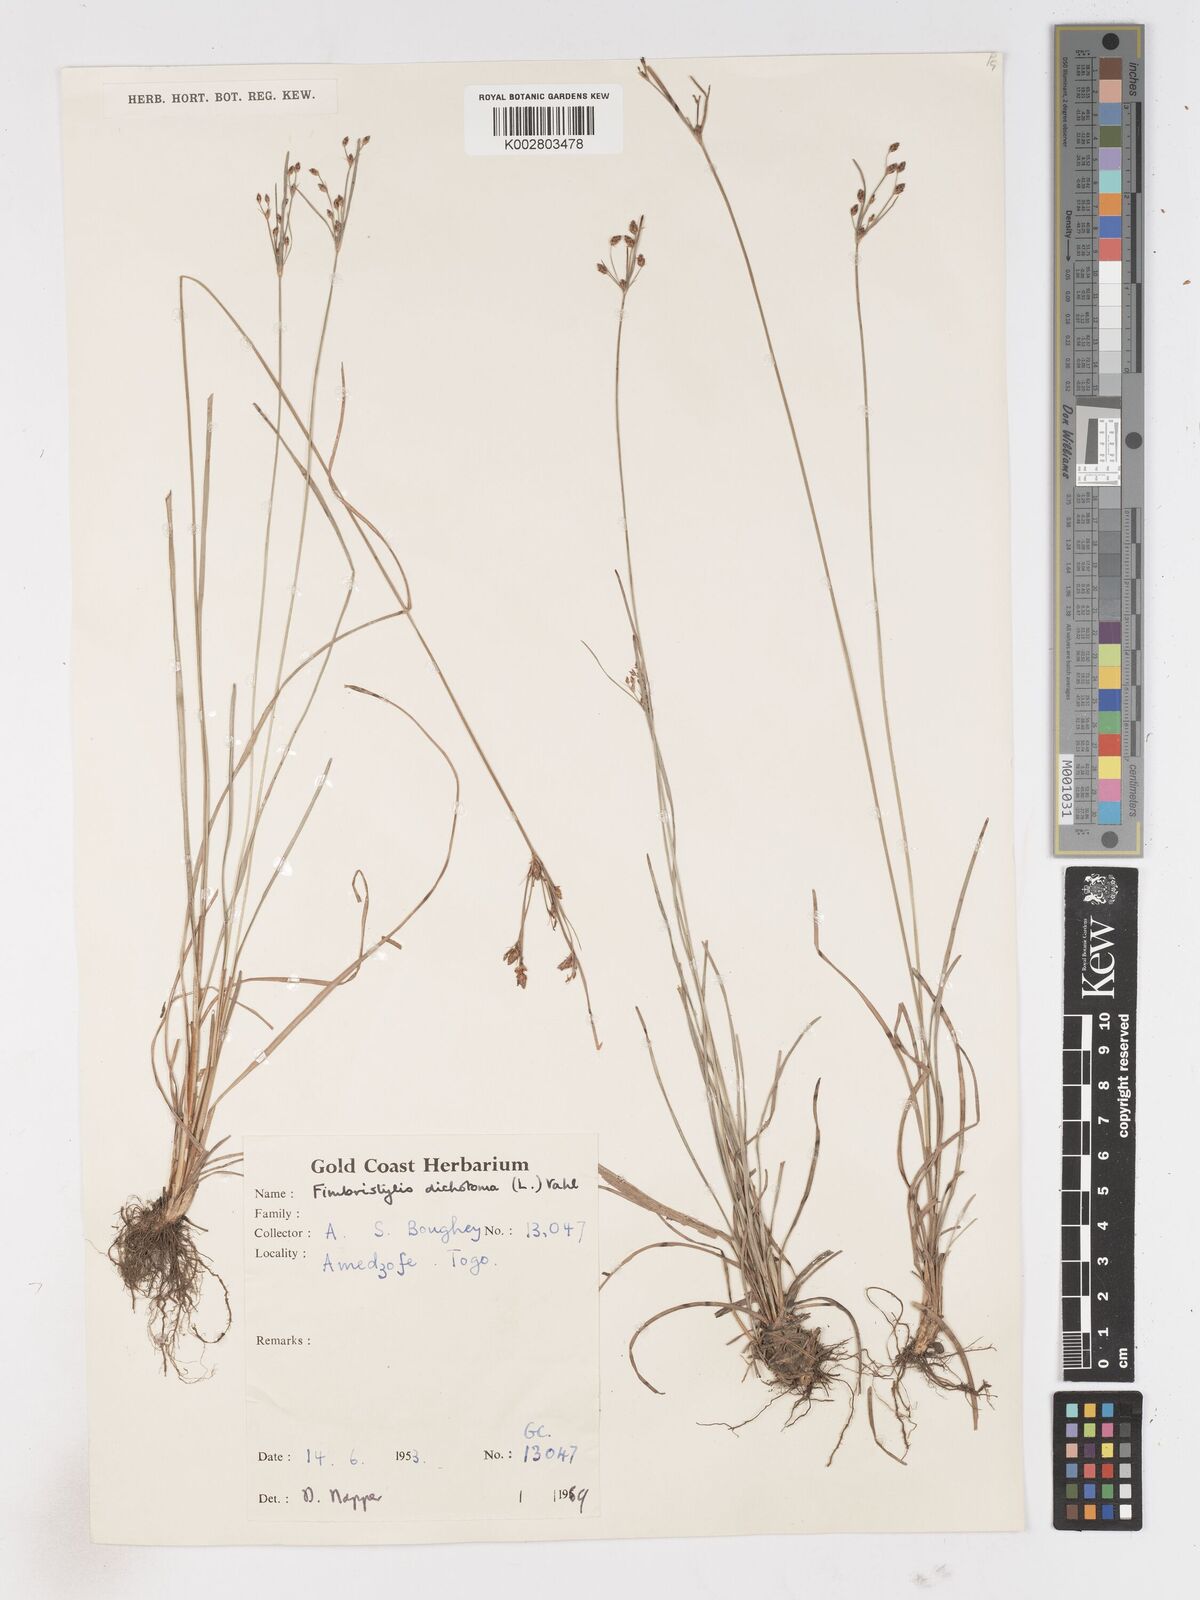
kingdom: Plantae
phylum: Tracheophyta
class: Liliopsida
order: Poales
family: Cyperaceae
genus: Fimbristylis
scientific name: Fimbristylis dichotoma
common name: Forked fimbry
